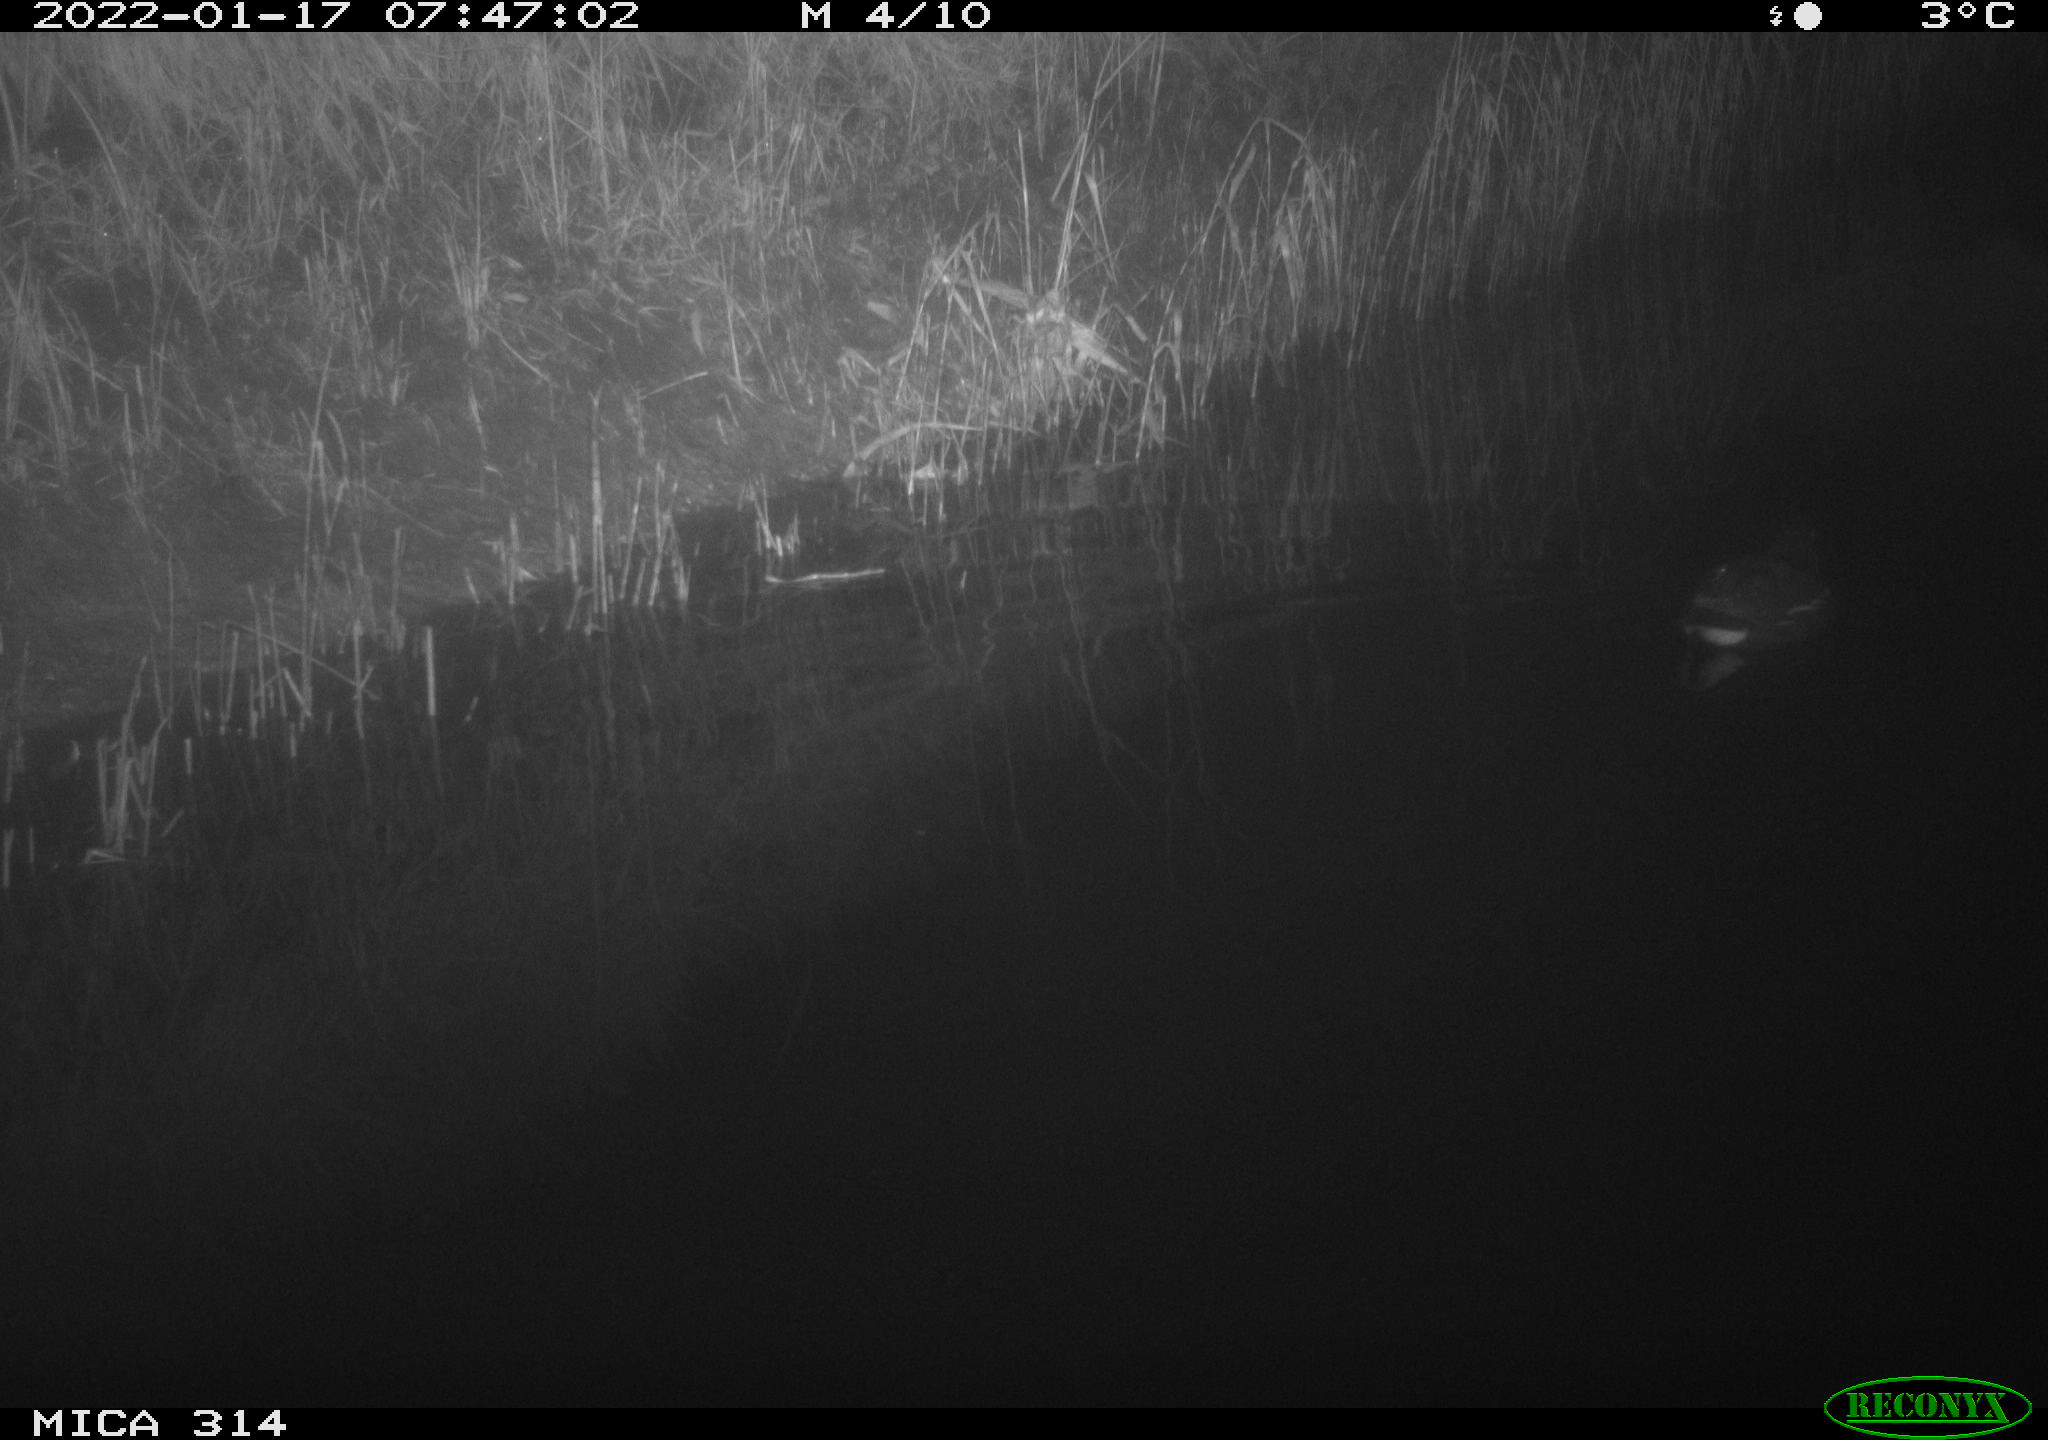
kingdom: Animalia
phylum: Chordata
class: Aves
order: Gruiformes
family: Rallidae
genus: Gallinula
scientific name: Gallinula chloropus
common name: Common moorhen
